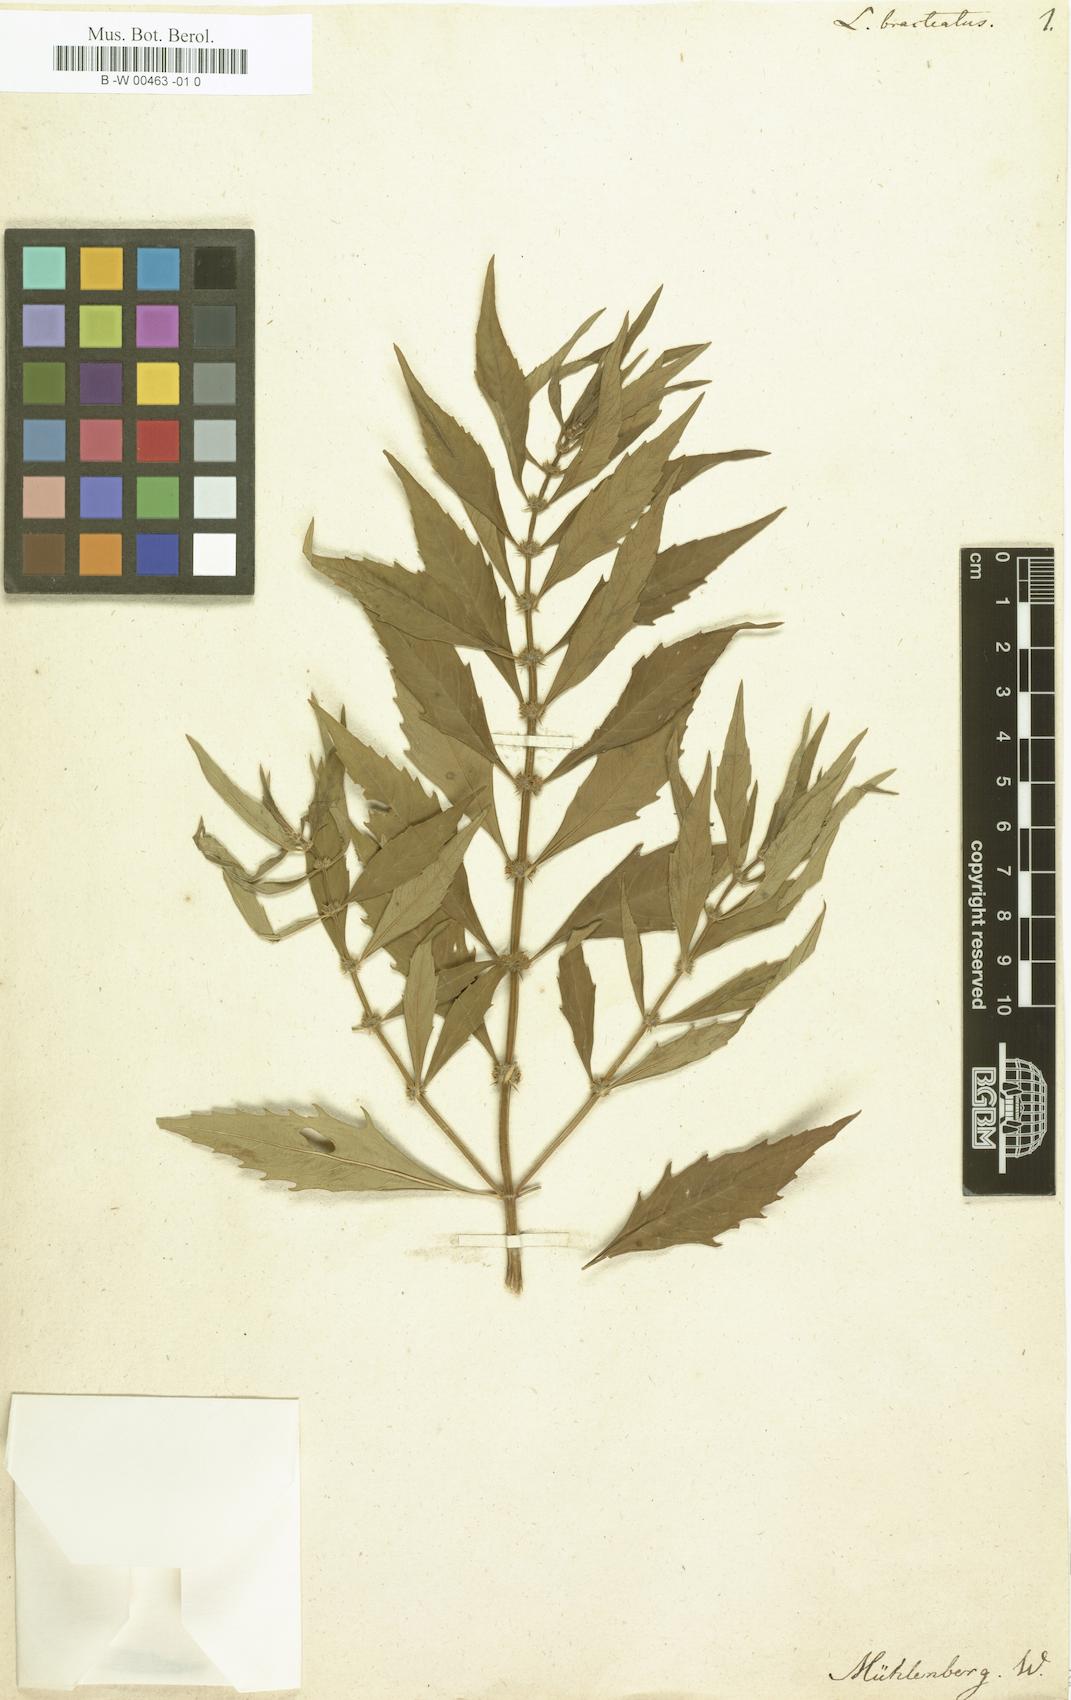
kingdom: Plantae
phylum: Tracheophyta
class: Magnoliopsida
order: Lamiales
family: Lamiaceae
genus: Lycopus
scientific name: Lycopus americanus
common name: American bugleweed
